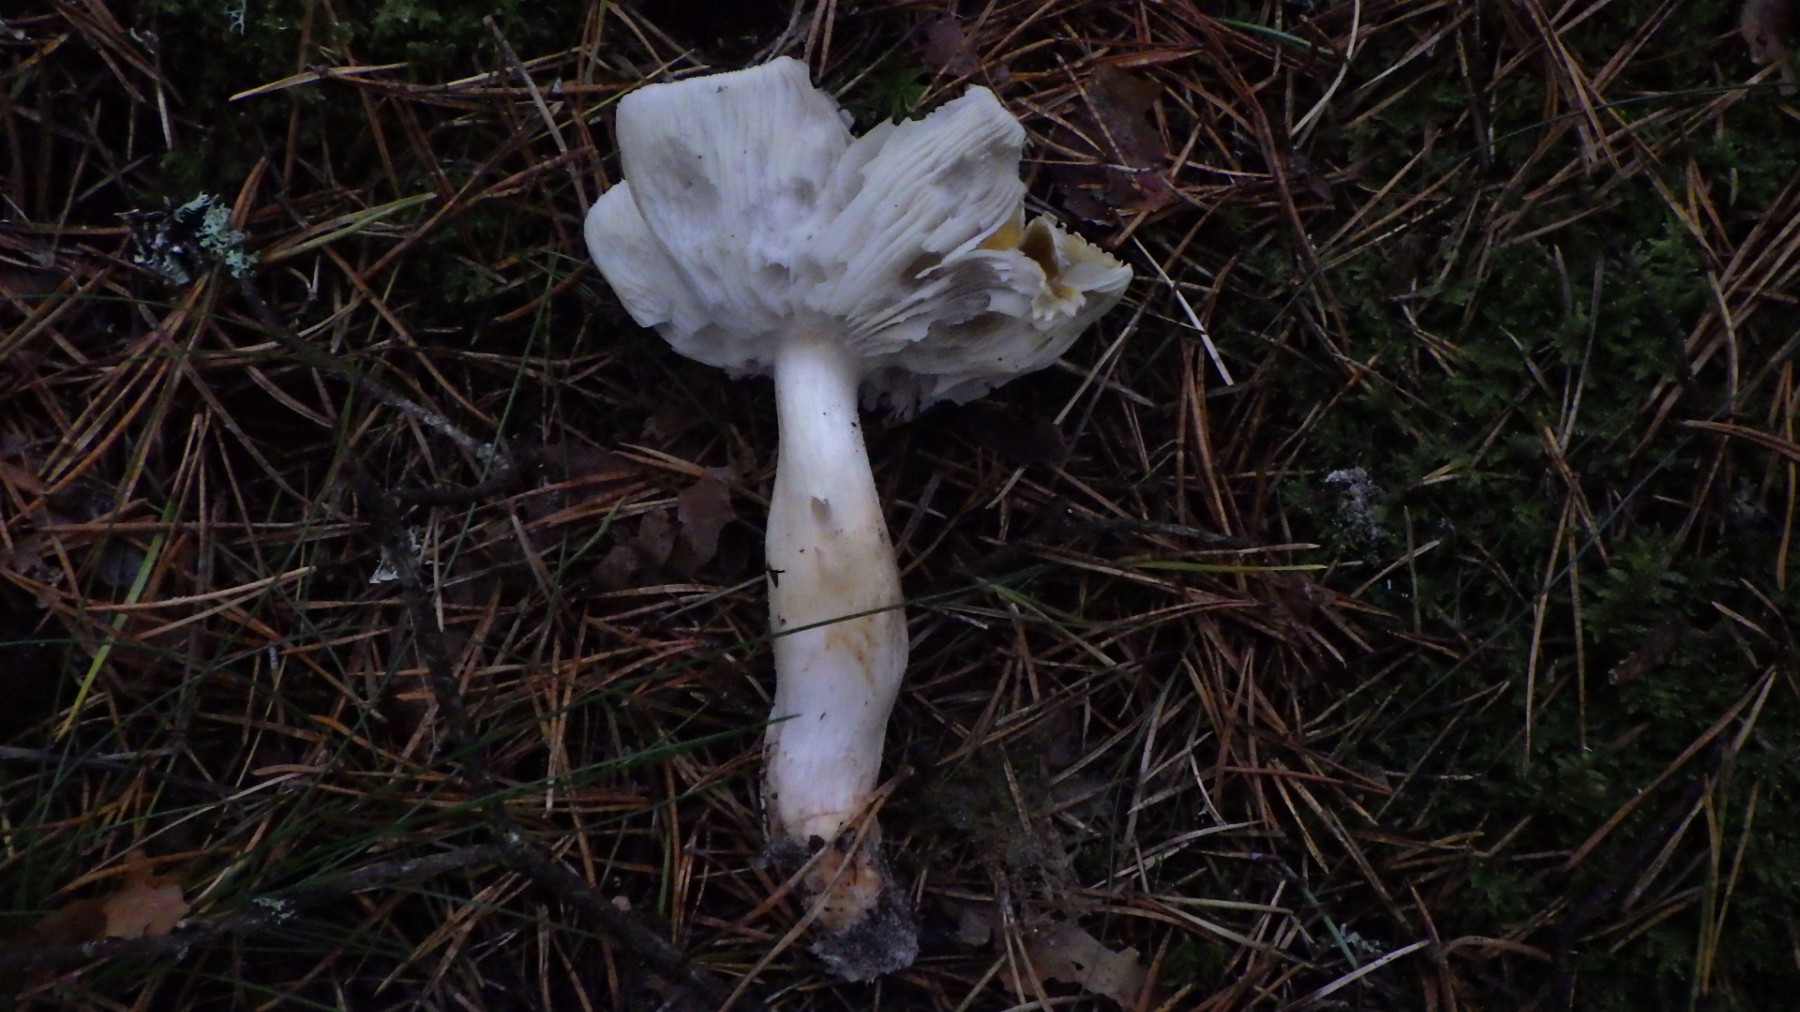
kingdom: Fungi
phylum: Basidiomycota
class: Agaricomycetes
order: Agaricales
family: Tricholomataceae
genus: Tricholoma
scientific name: Tricholoma
